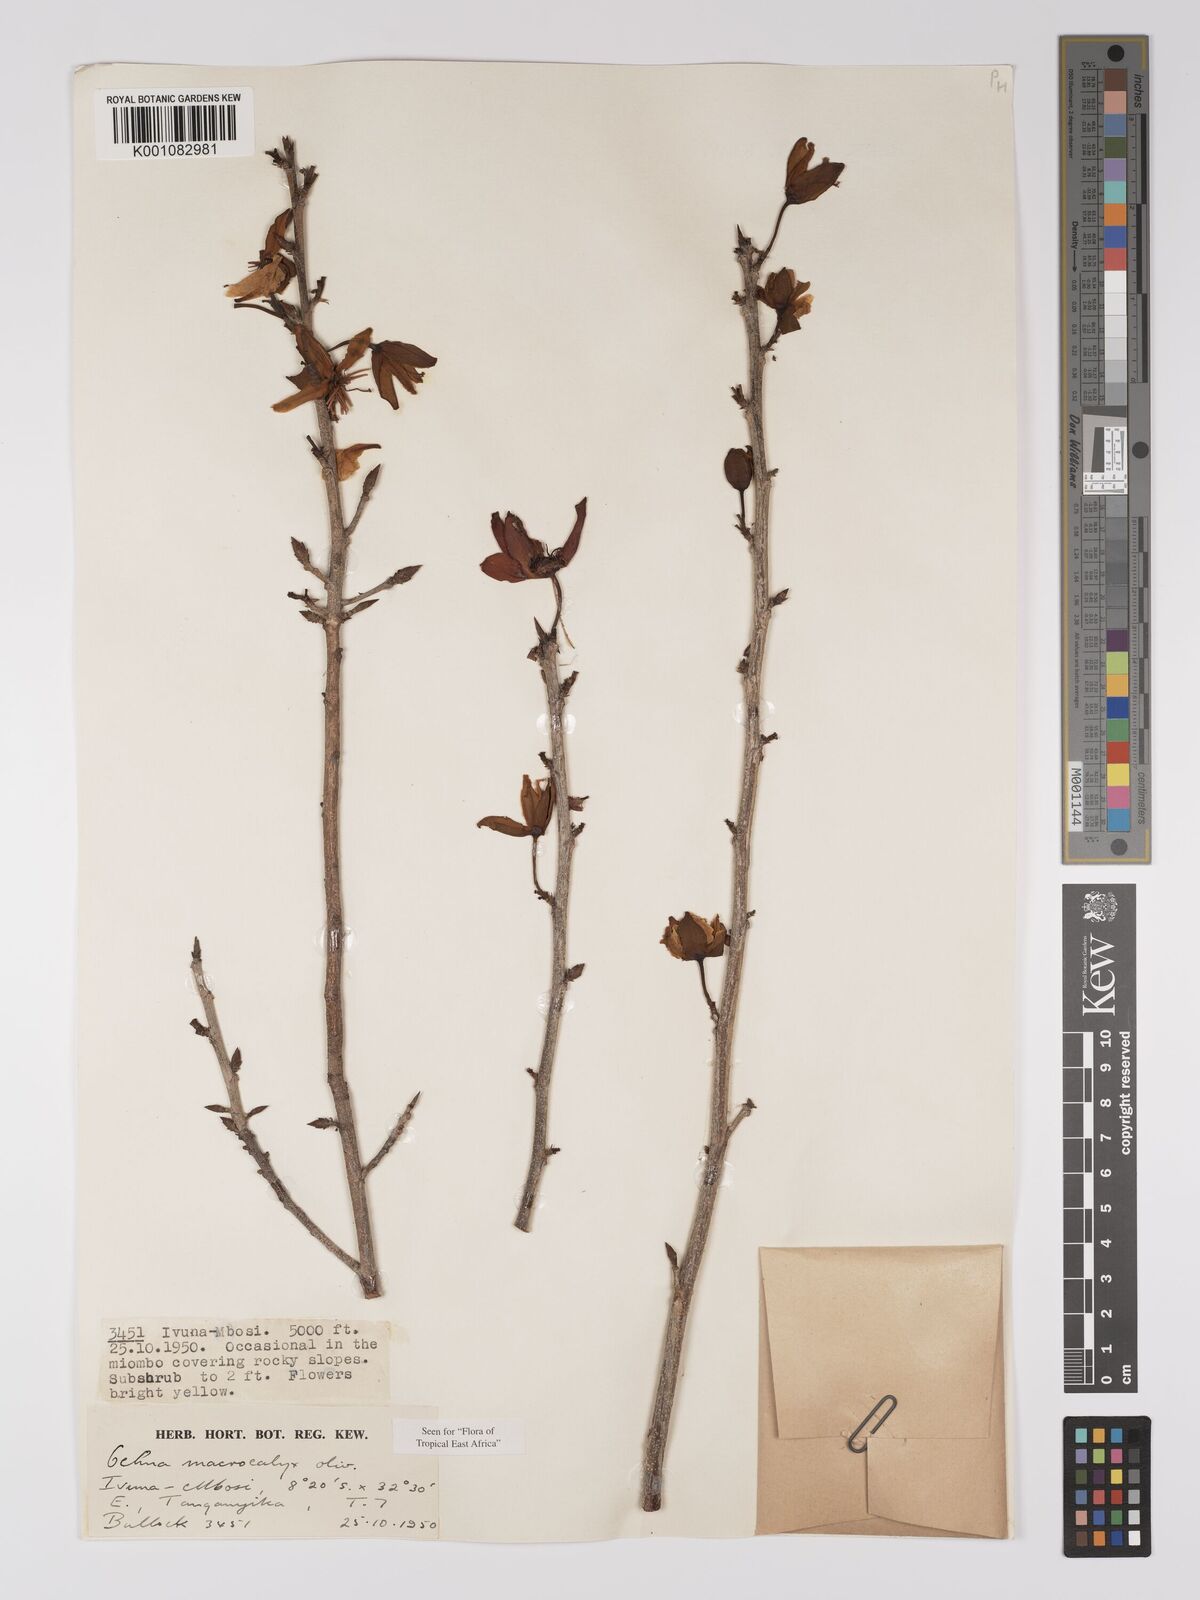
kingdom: Plantae
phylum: Tracheophyta
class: Magnoliopsida
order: Malpighiales
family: Ochnaceae
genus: Ochna
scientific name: Ochna macrocalyx
